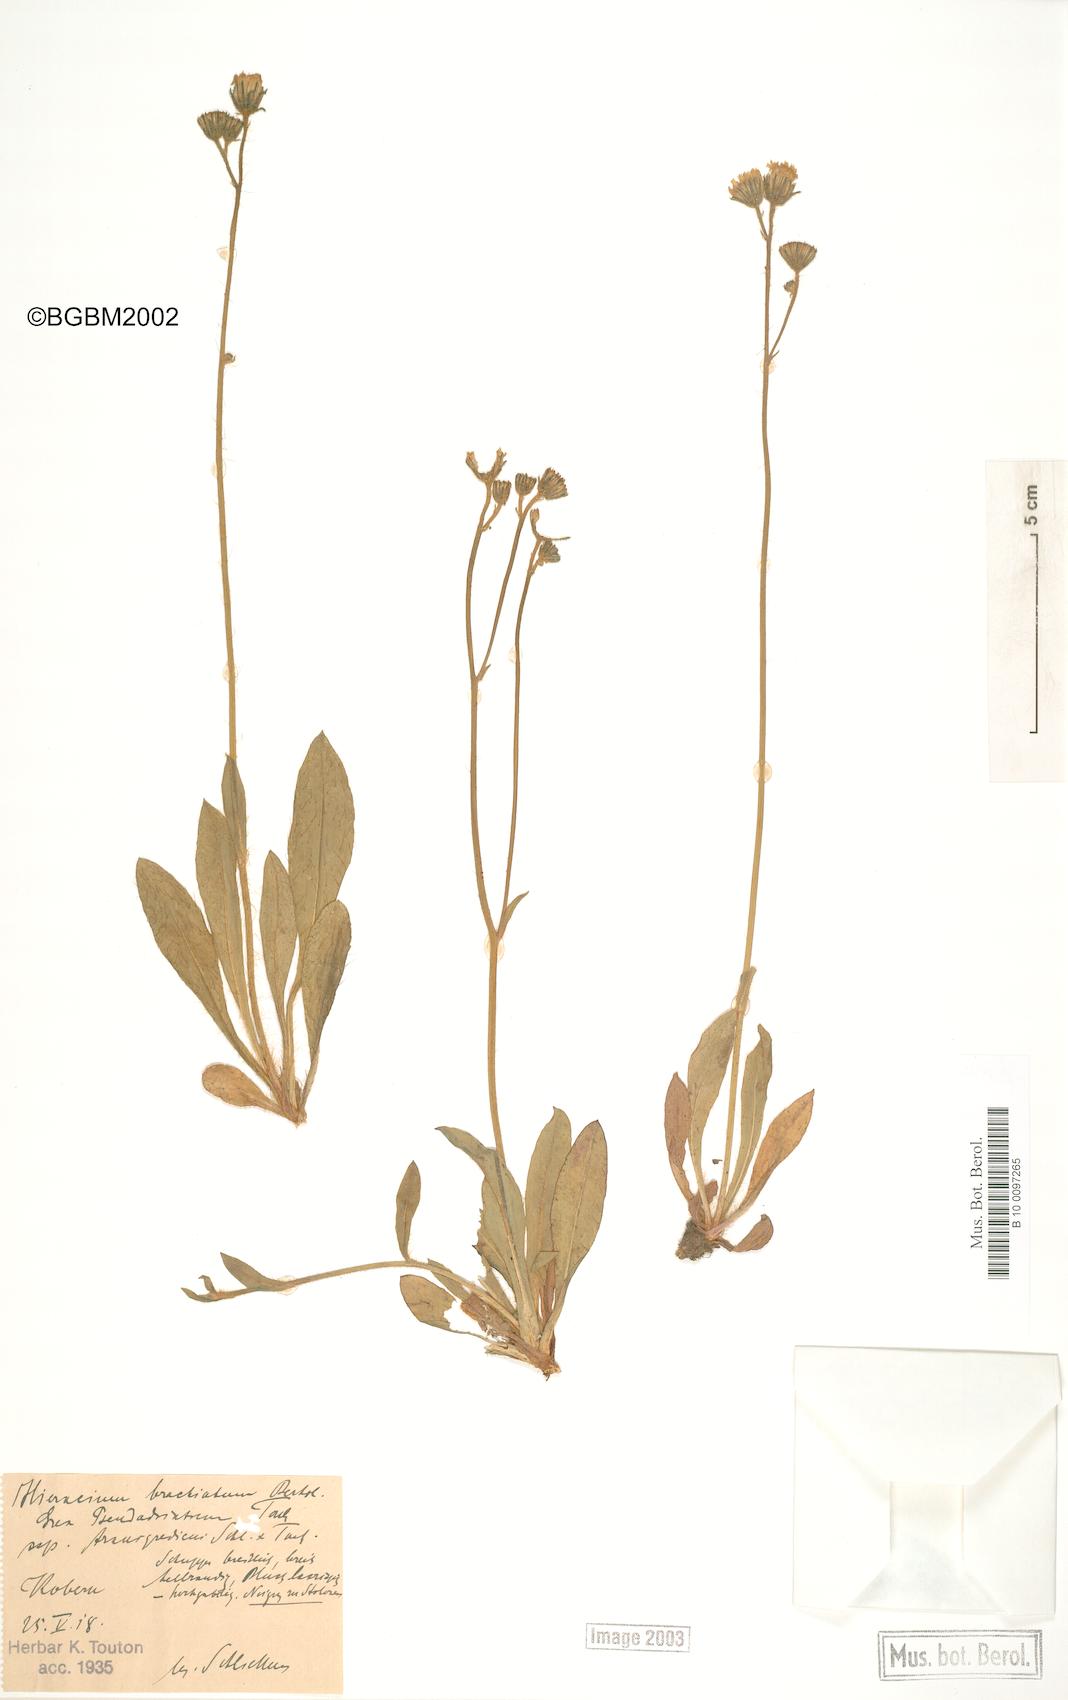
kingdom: Plantae
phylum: Tracheophyta
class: Magnoliopsida
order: Asterales
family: Asteraceae
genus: Pilosella
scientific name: Pilosella acutifolia
